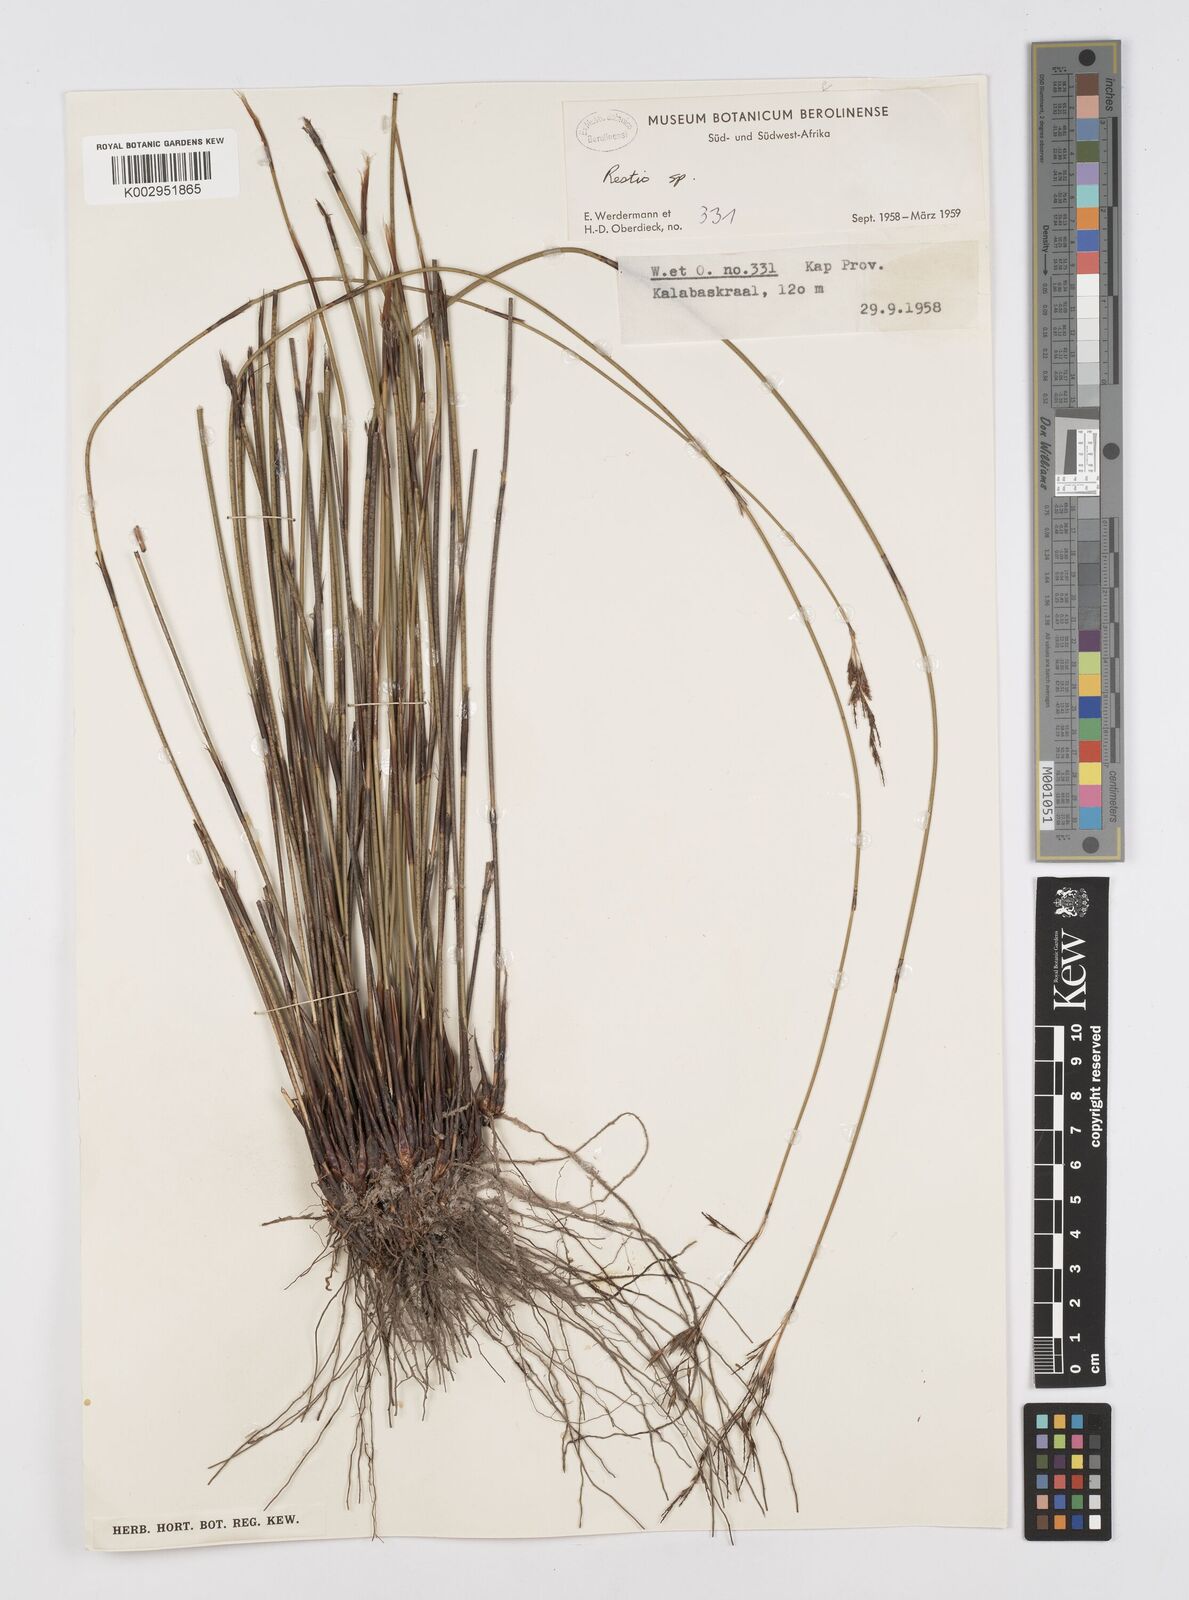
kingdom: Plantae
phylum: Tracheophyta
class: Liliopsida
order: Poales
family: Restionaceae
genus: Restio
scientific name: Restio
